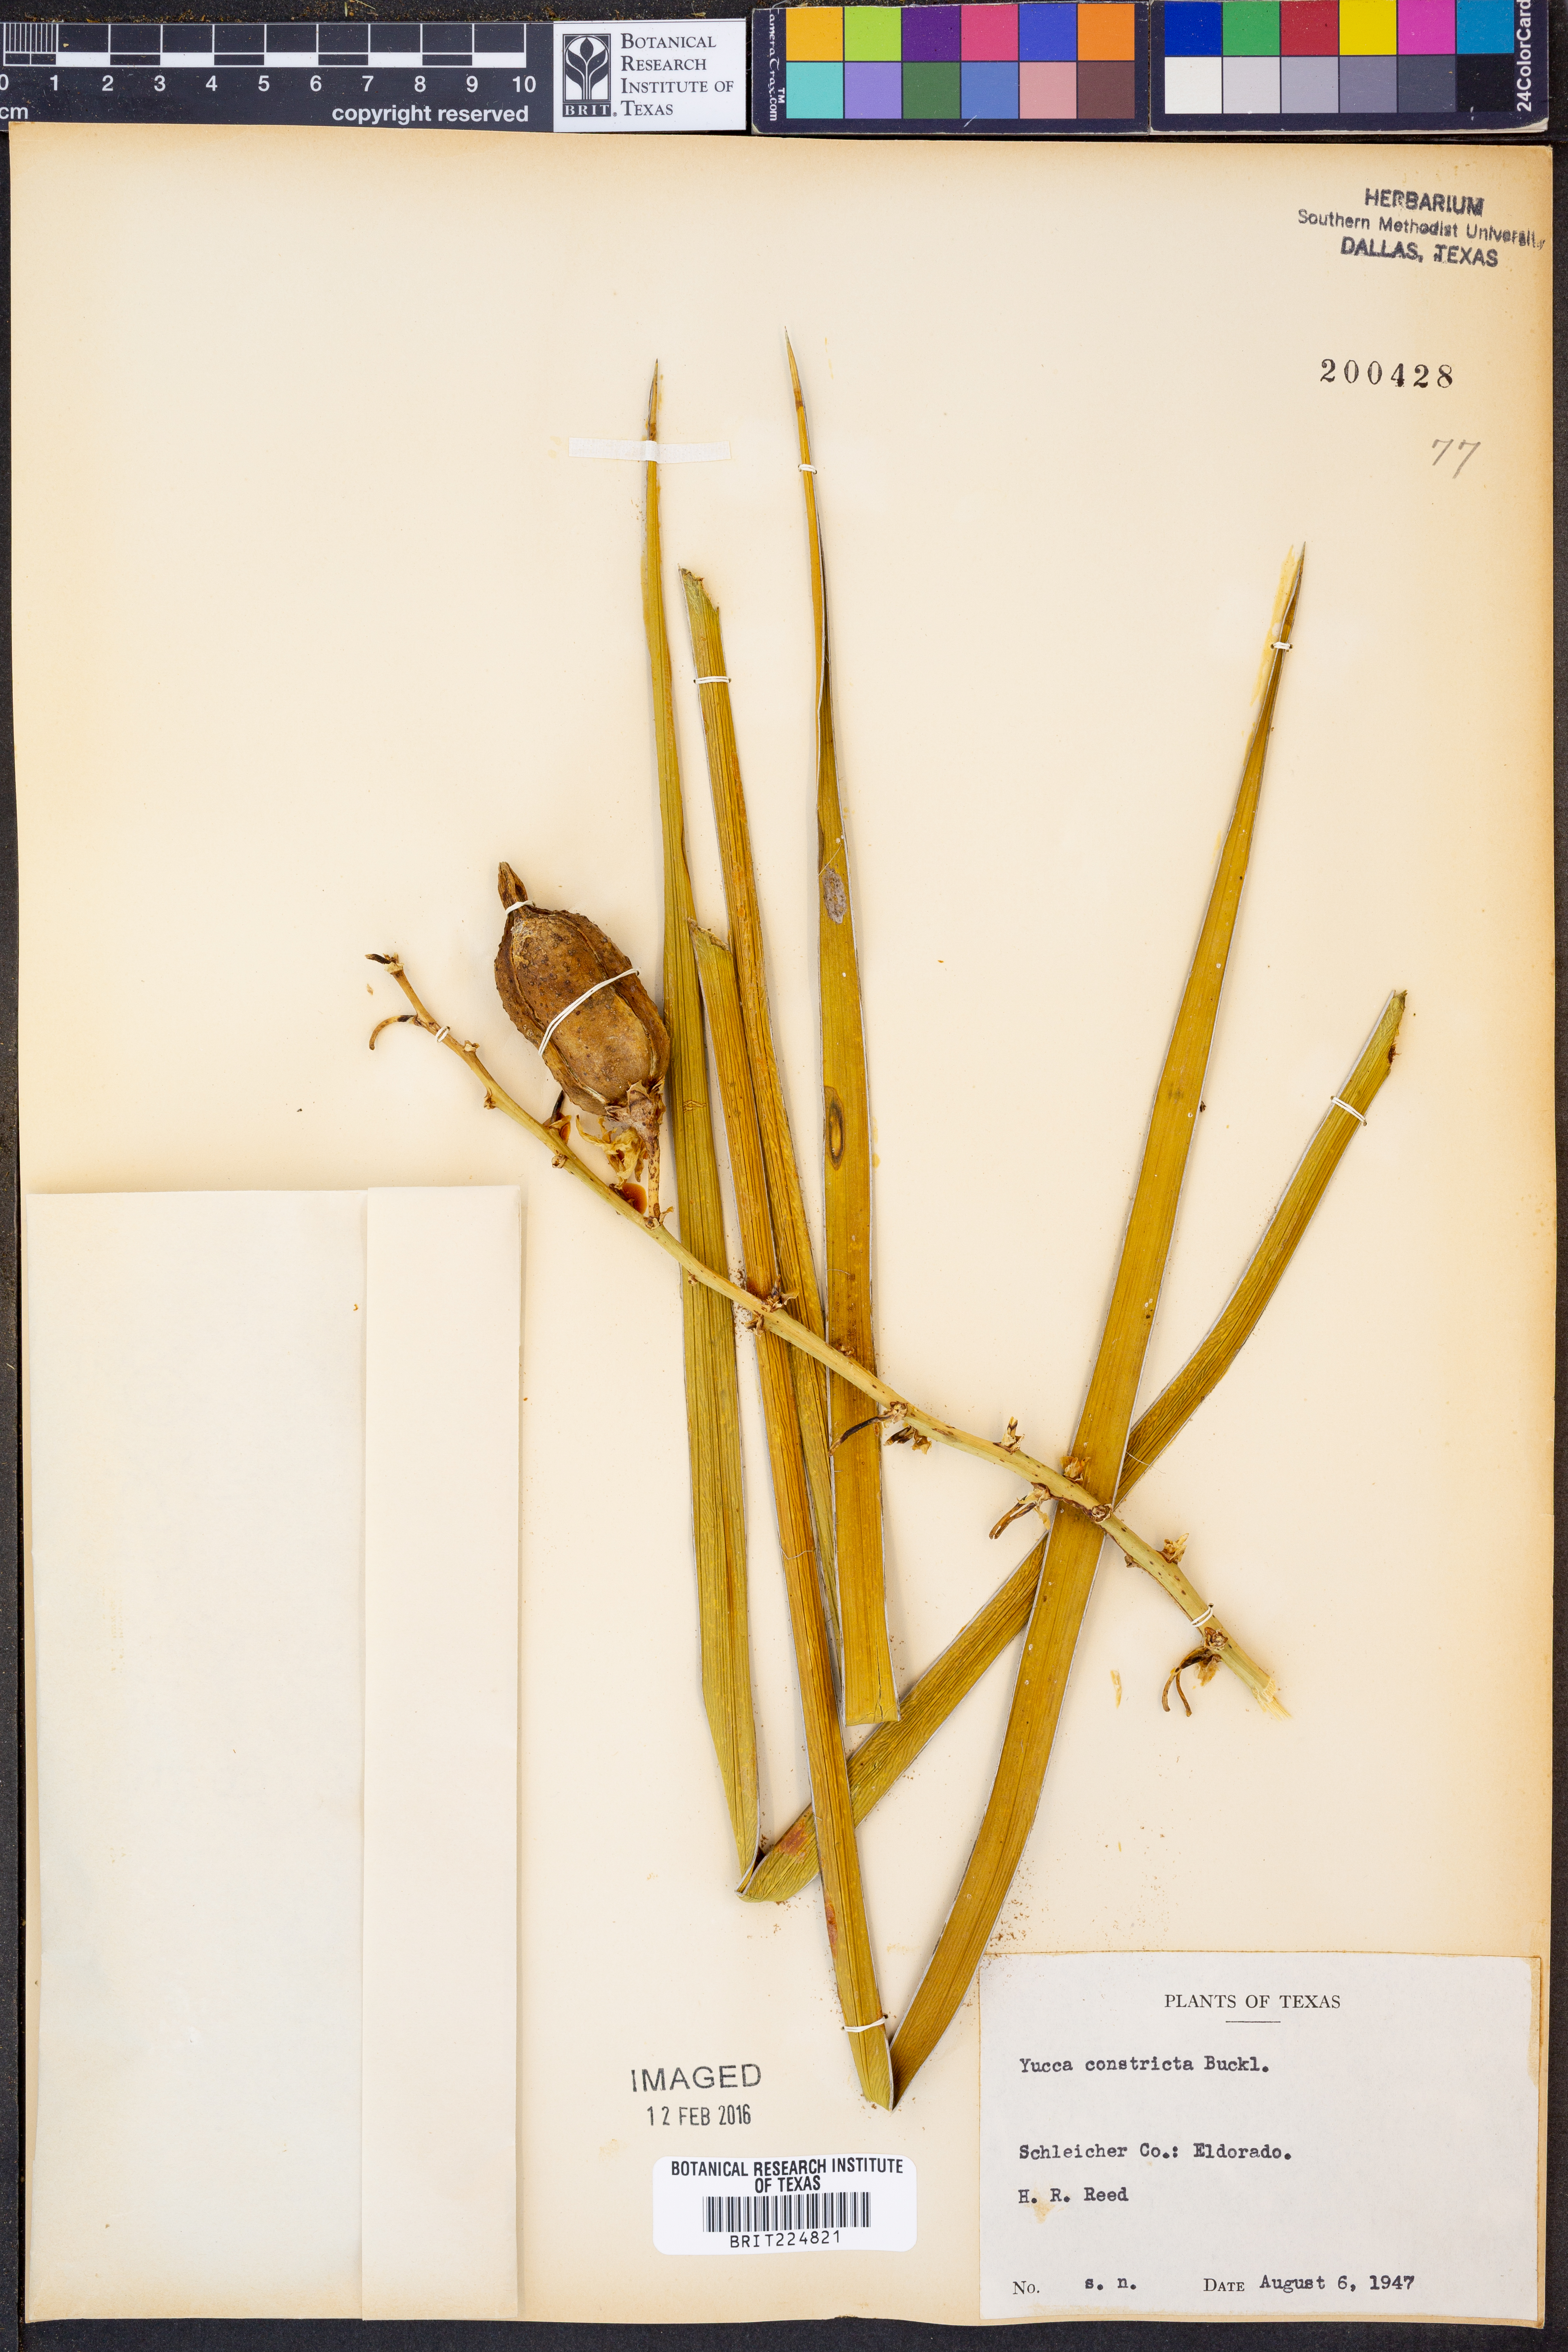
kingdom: Plantae
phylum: Tracheophyta
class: Liliopsida
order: Asparagales
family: Asparagaceae
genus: Yucca
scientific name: Yucca constricta
